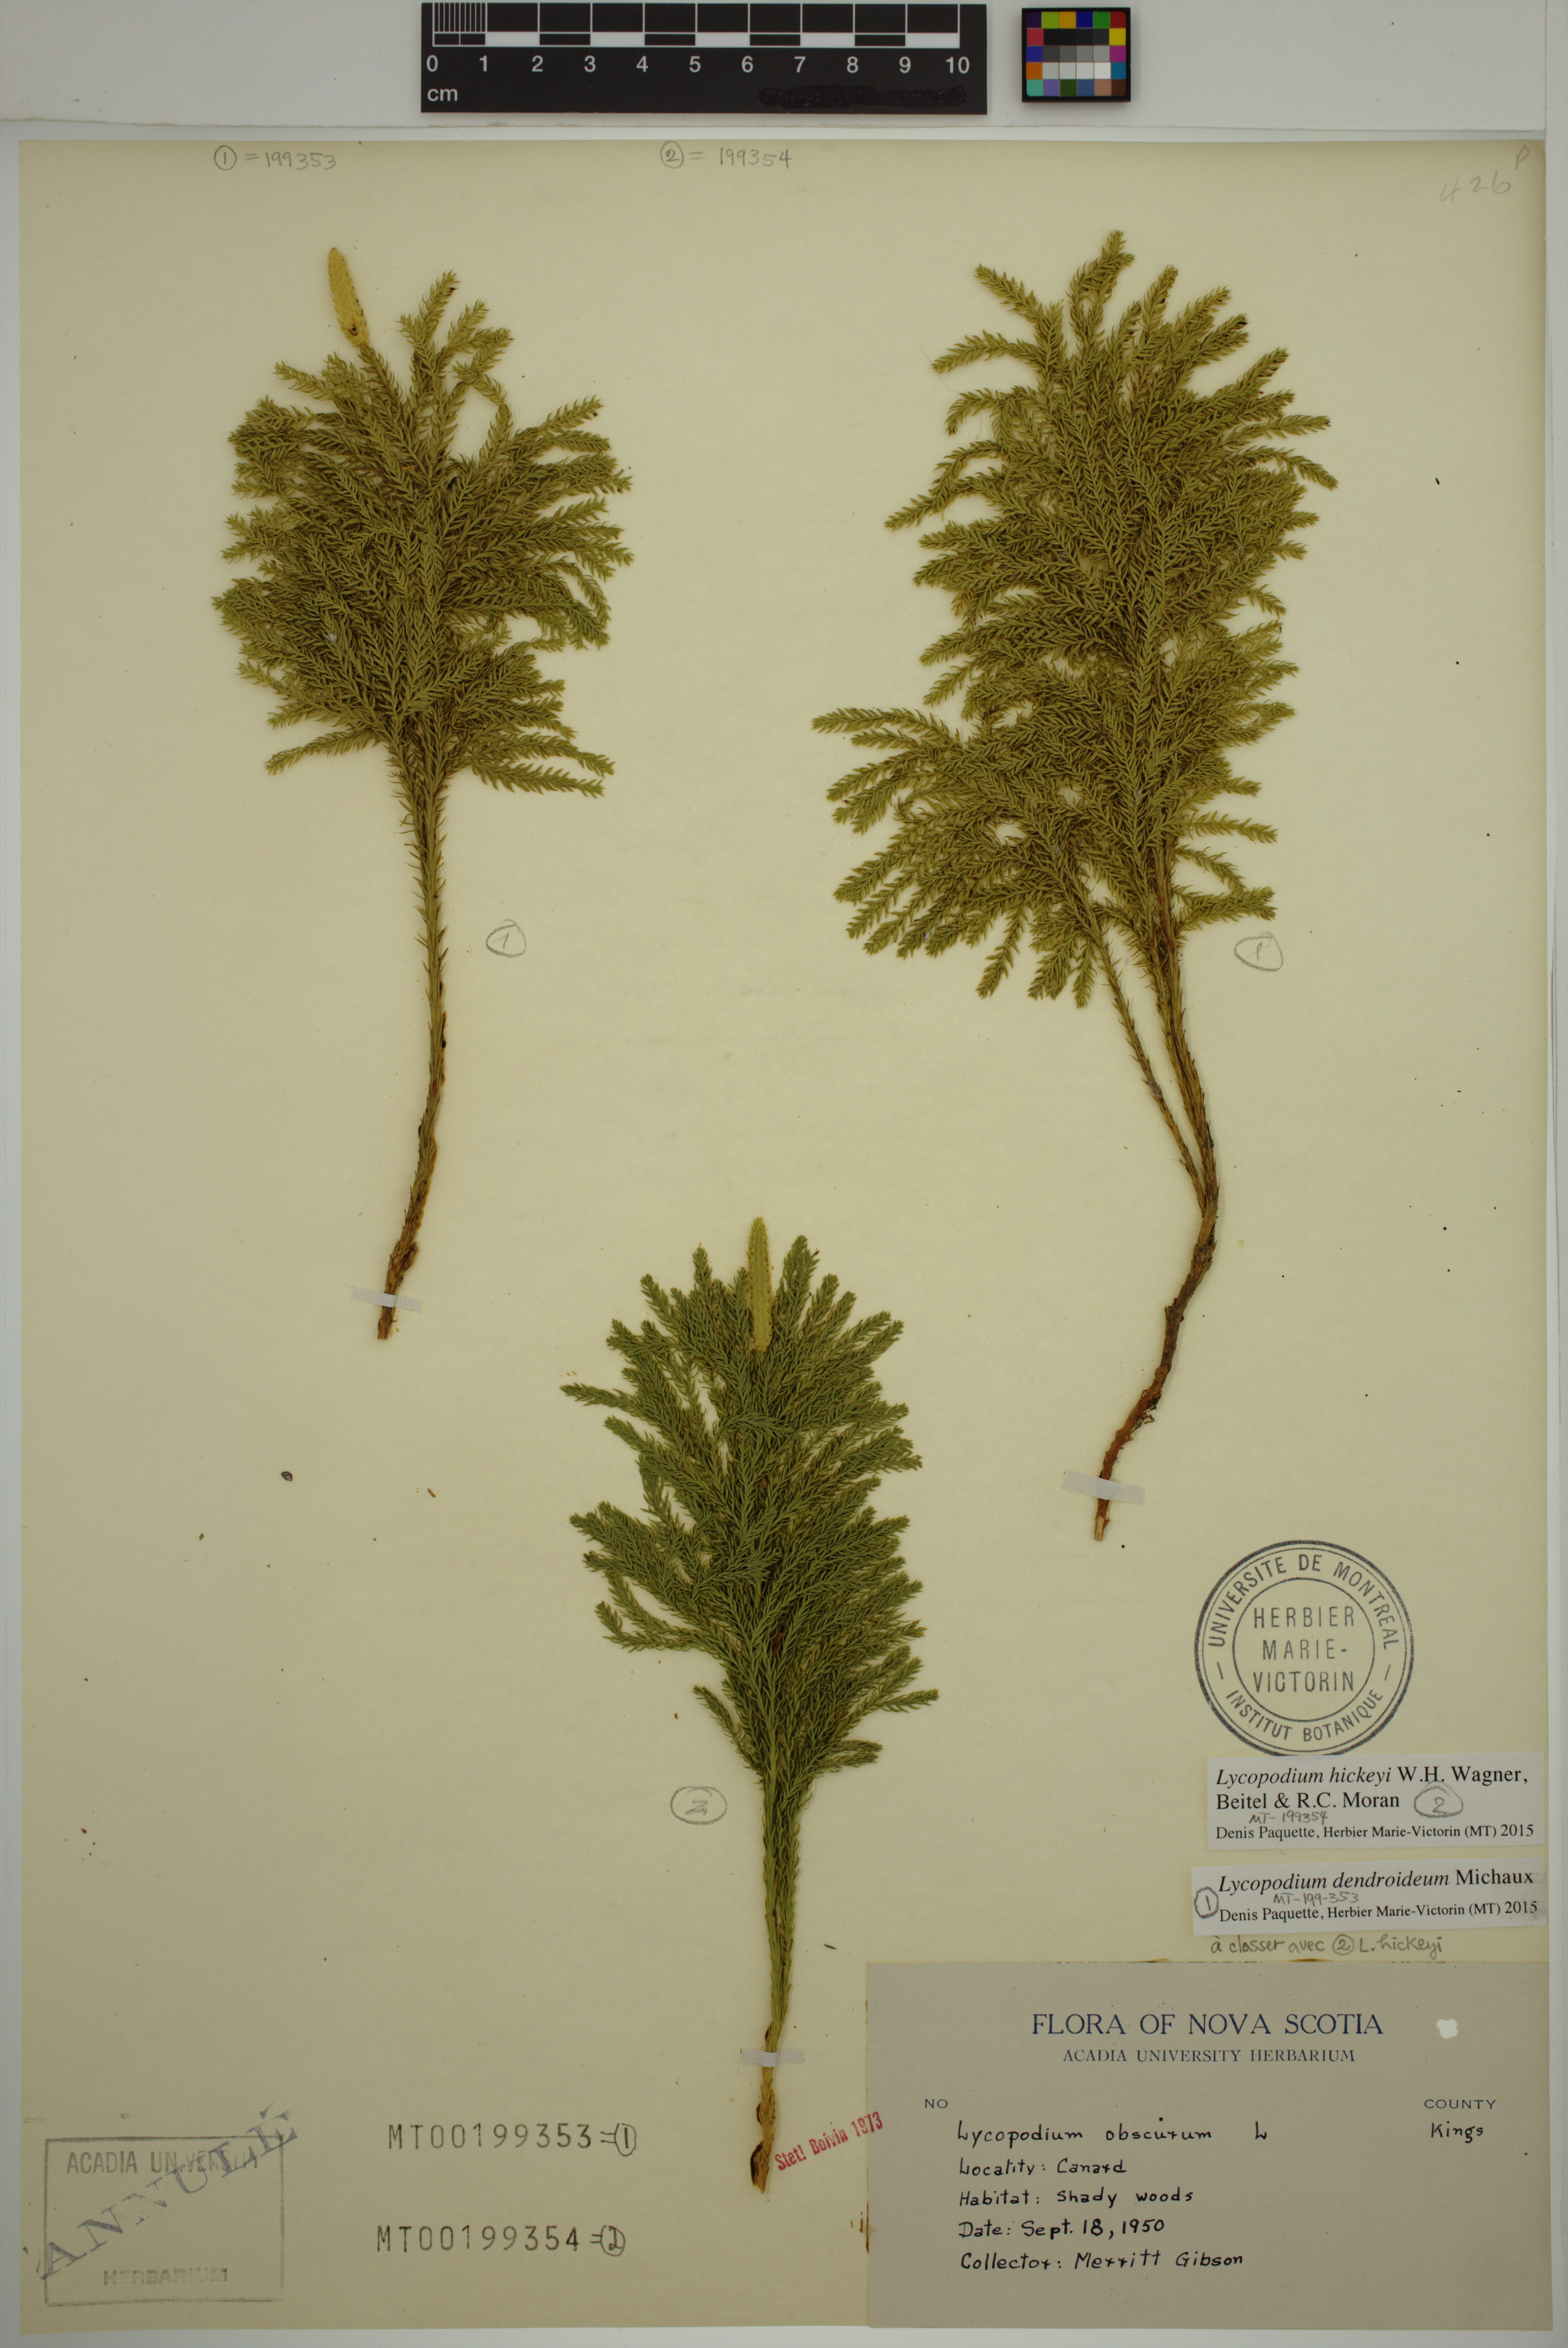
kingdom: Plantae
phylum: Tracheophyta
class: Lycopodiopsida
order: Lycopodiales
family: Lycopodiaceae
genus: Dendrolycopodium
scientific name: Dendrolycopodium dendroideum
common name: Northern tree-clubmoss
